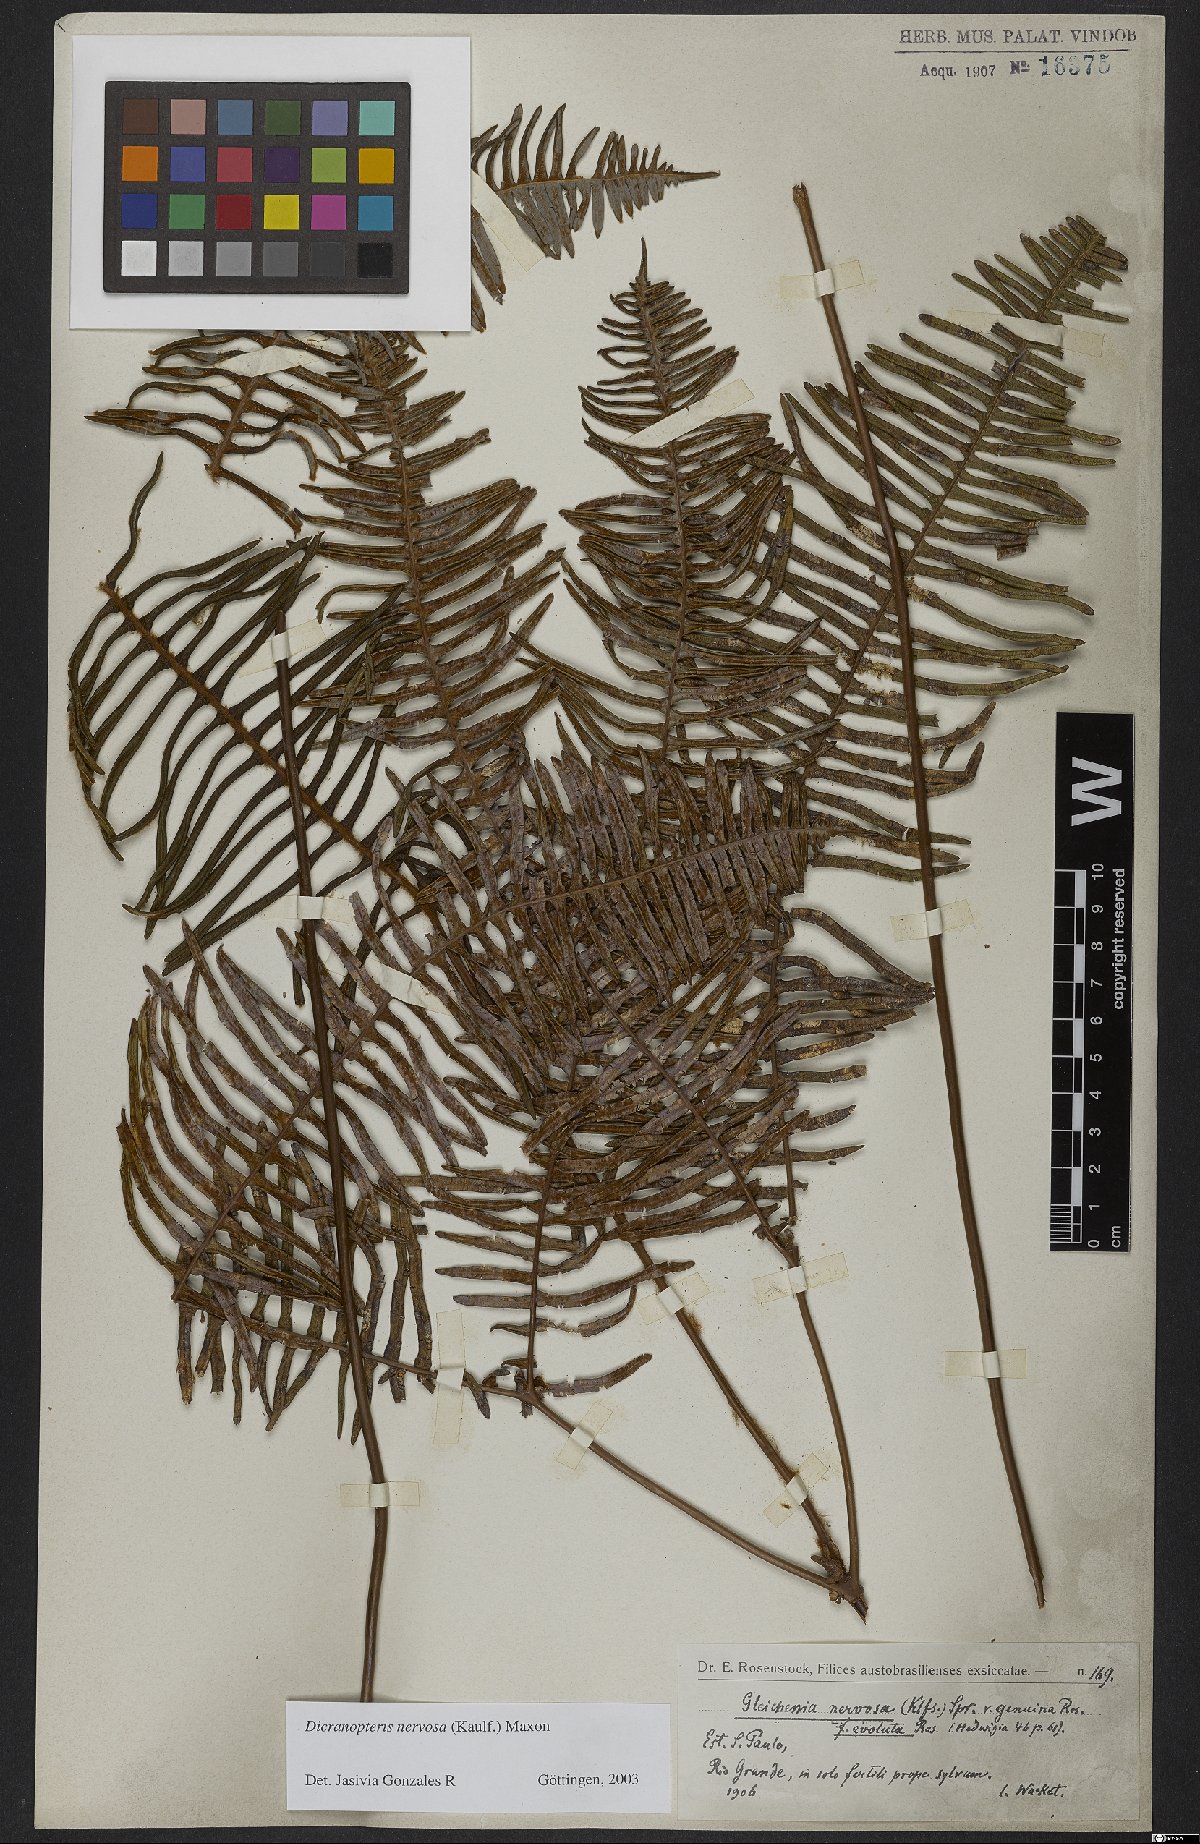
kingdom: Plantae
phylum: Tracheophyta
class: Polypodiopsida
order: Gleicheniales
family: Gleicheniaceae
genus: Dicranopteris
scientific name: Dicranopteris nervosa
